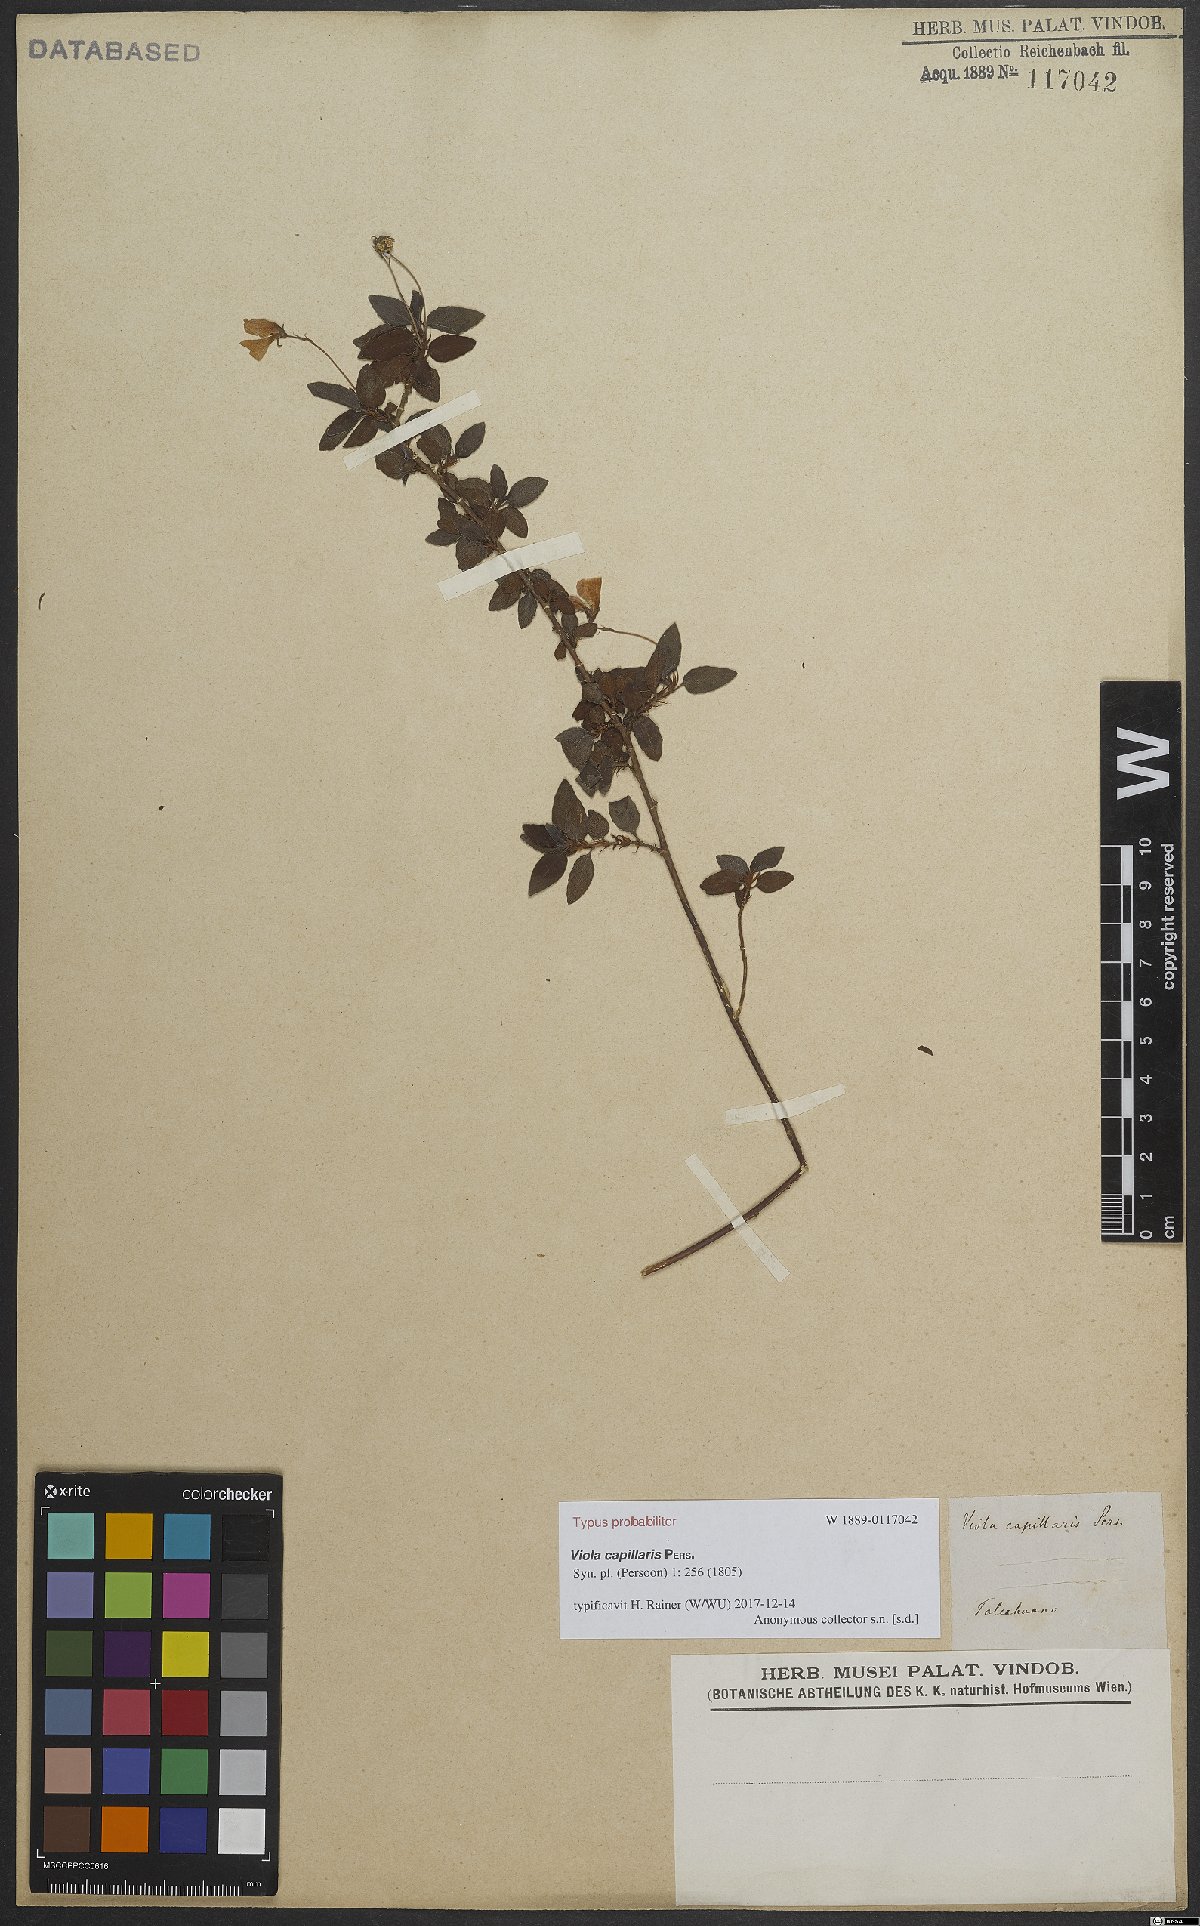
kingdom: Plantae
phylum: Tracheophyta
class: Magnoliopsida
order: Malpighiales
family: Violaceae
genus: Viola
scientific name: Viola capillaris
